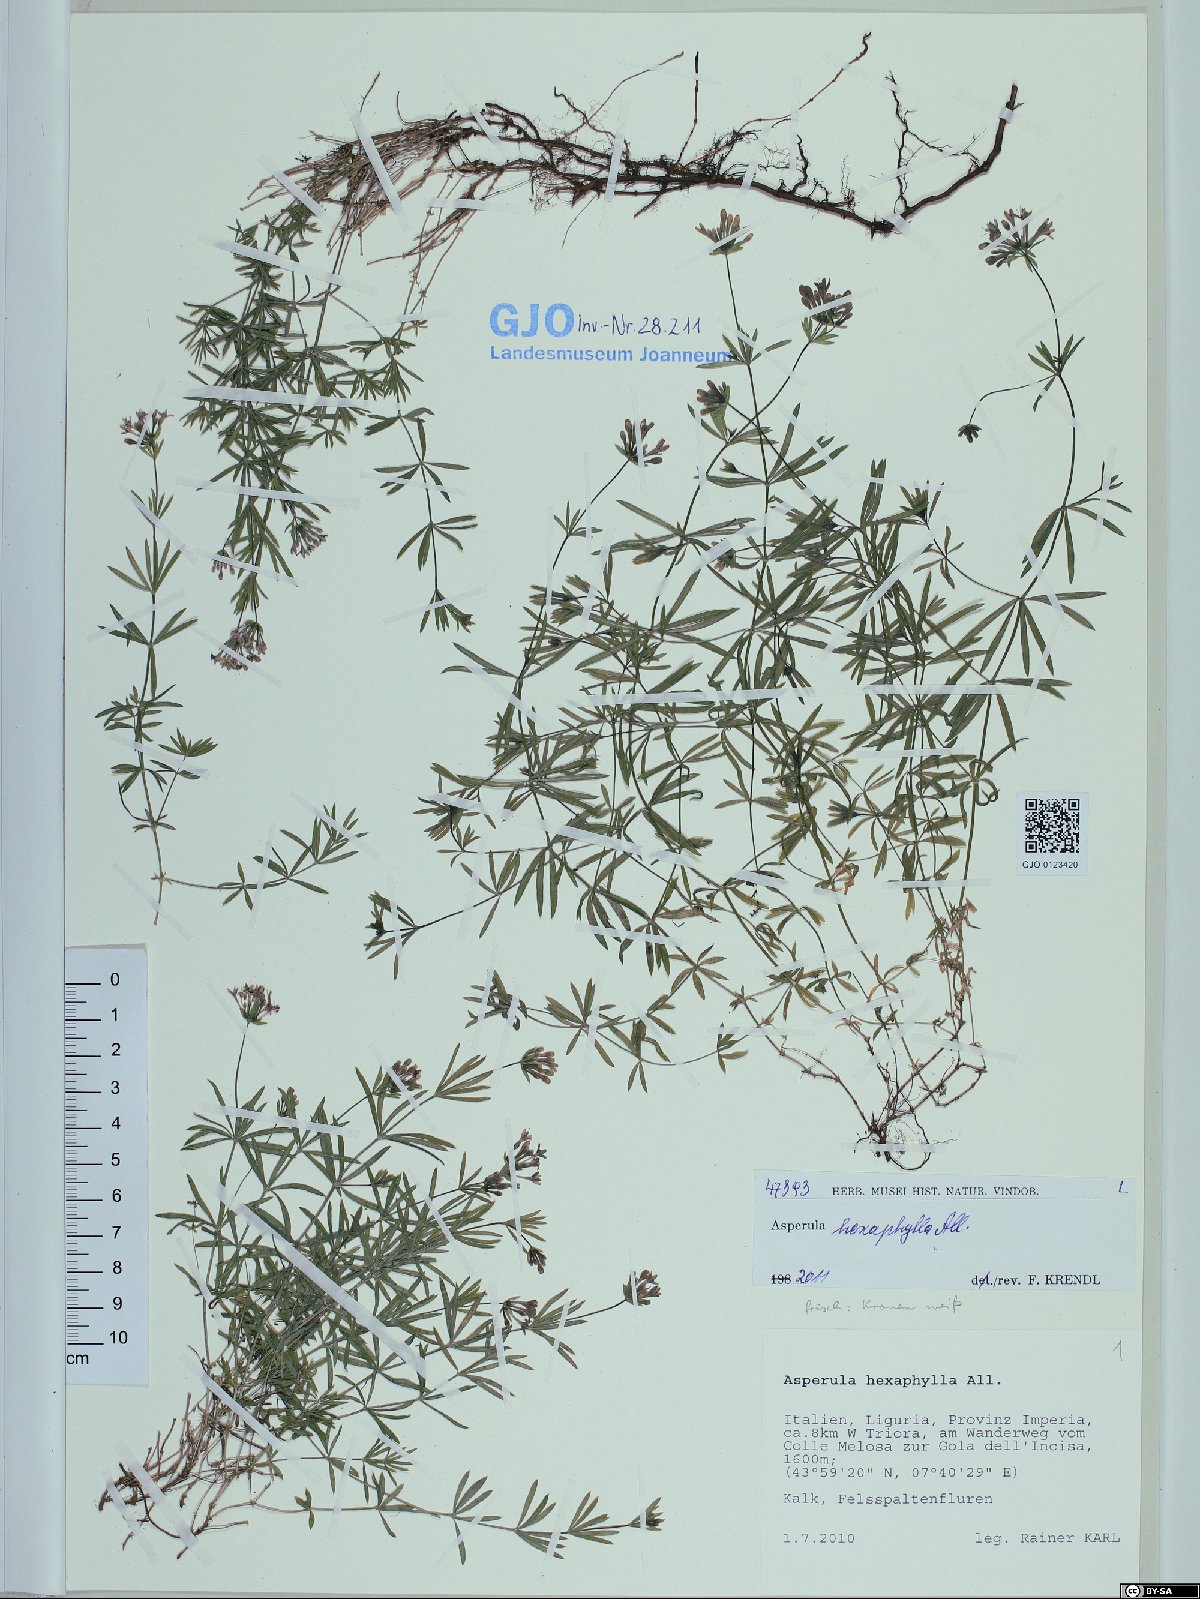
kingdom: Plantae
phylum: Tracheophyta
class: Magnoliopsida
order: Gentianales
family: Rubiaceae
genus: Hexaphylla
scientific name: Hexaphylla allionii
